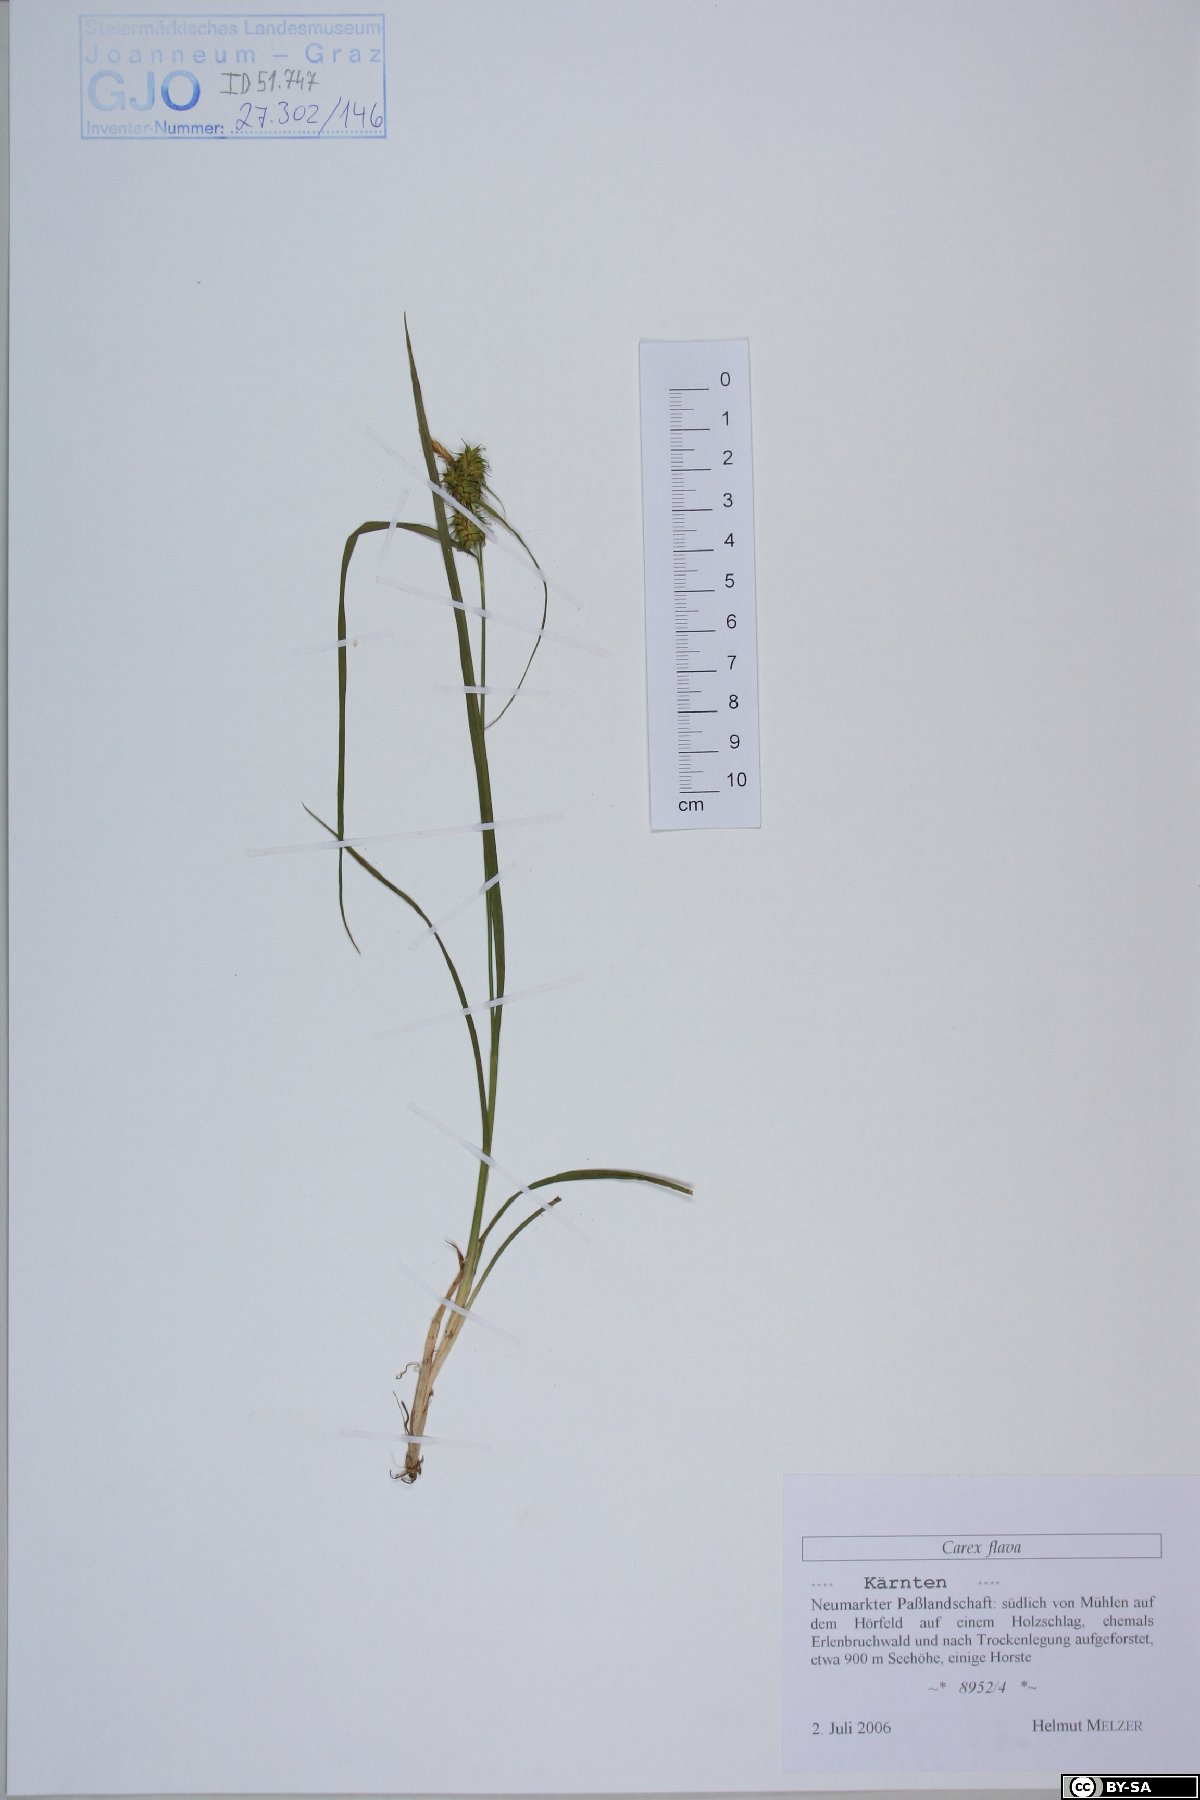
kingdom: Plantae
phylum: Tracheophyta
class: Liliopsida
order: Poales
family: Cyperaceae
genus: Carex
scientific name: Carex flava
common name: Large yellow-sedge
